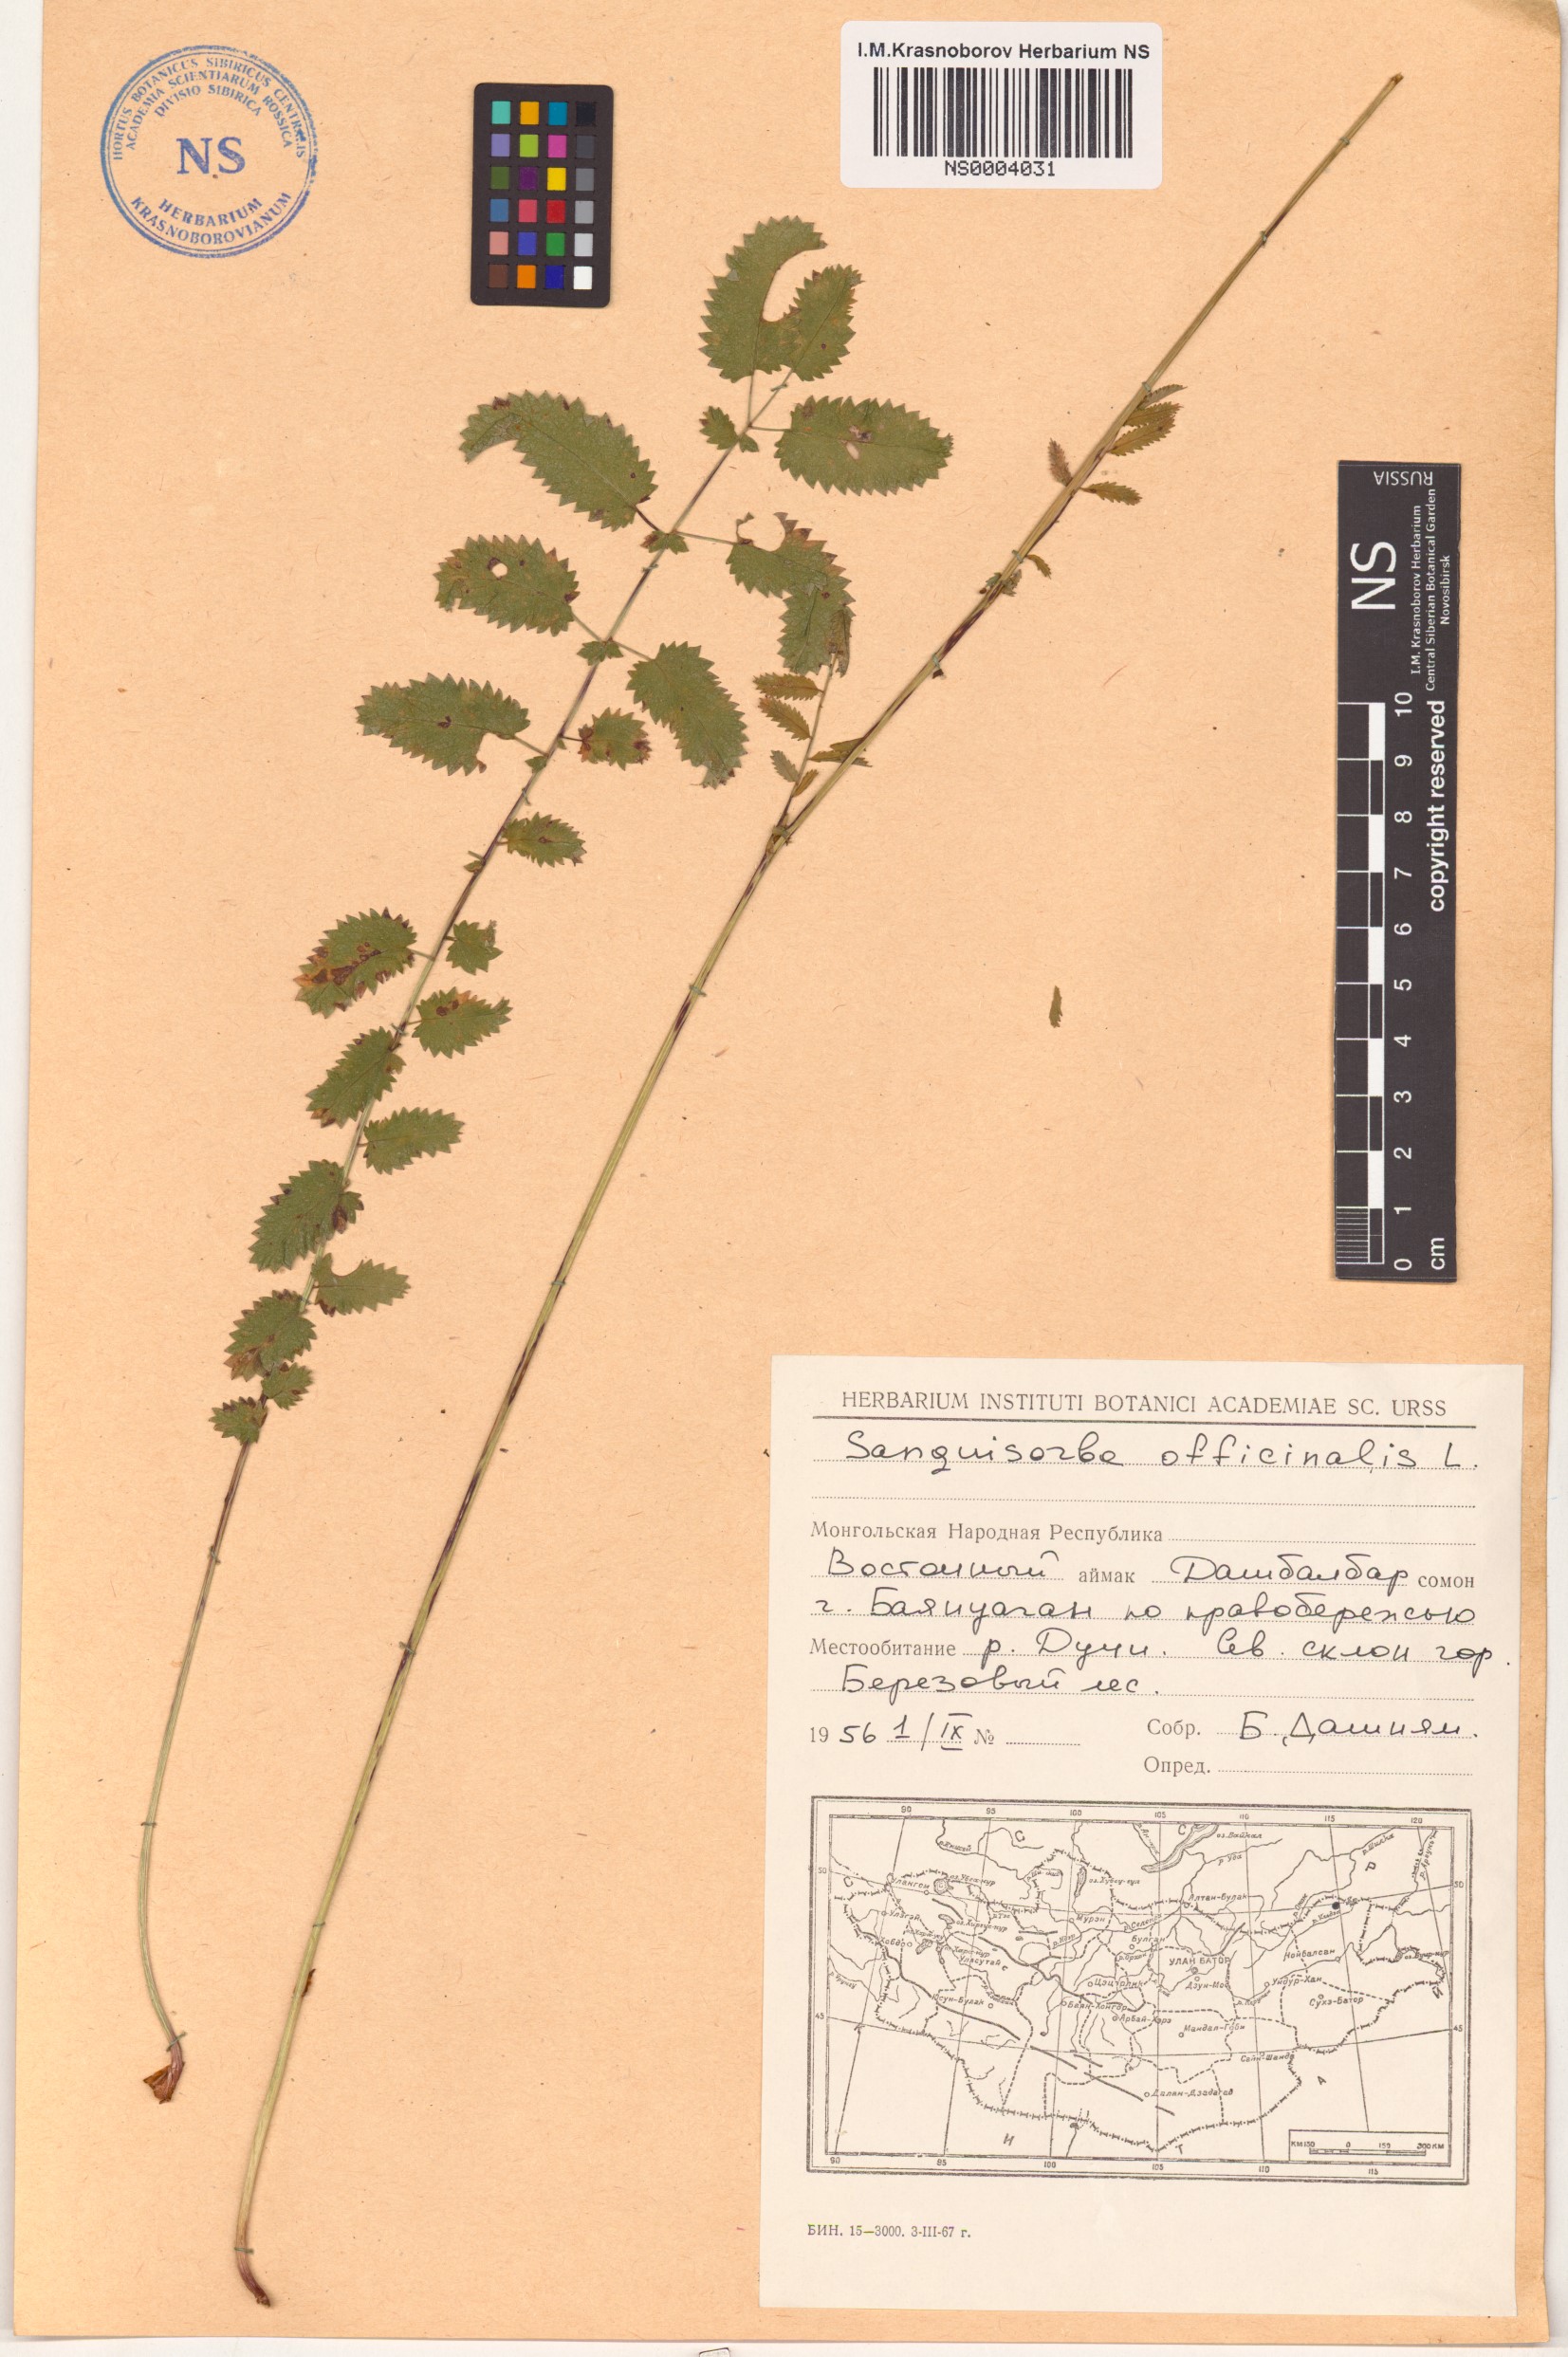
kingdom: Plantae
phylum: Tracheophyta
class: Magnoliopsida
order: Rosales
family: Rosaceae
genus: Sanguisorba
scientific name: Sanguisorba officinalis
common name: Great burnet
